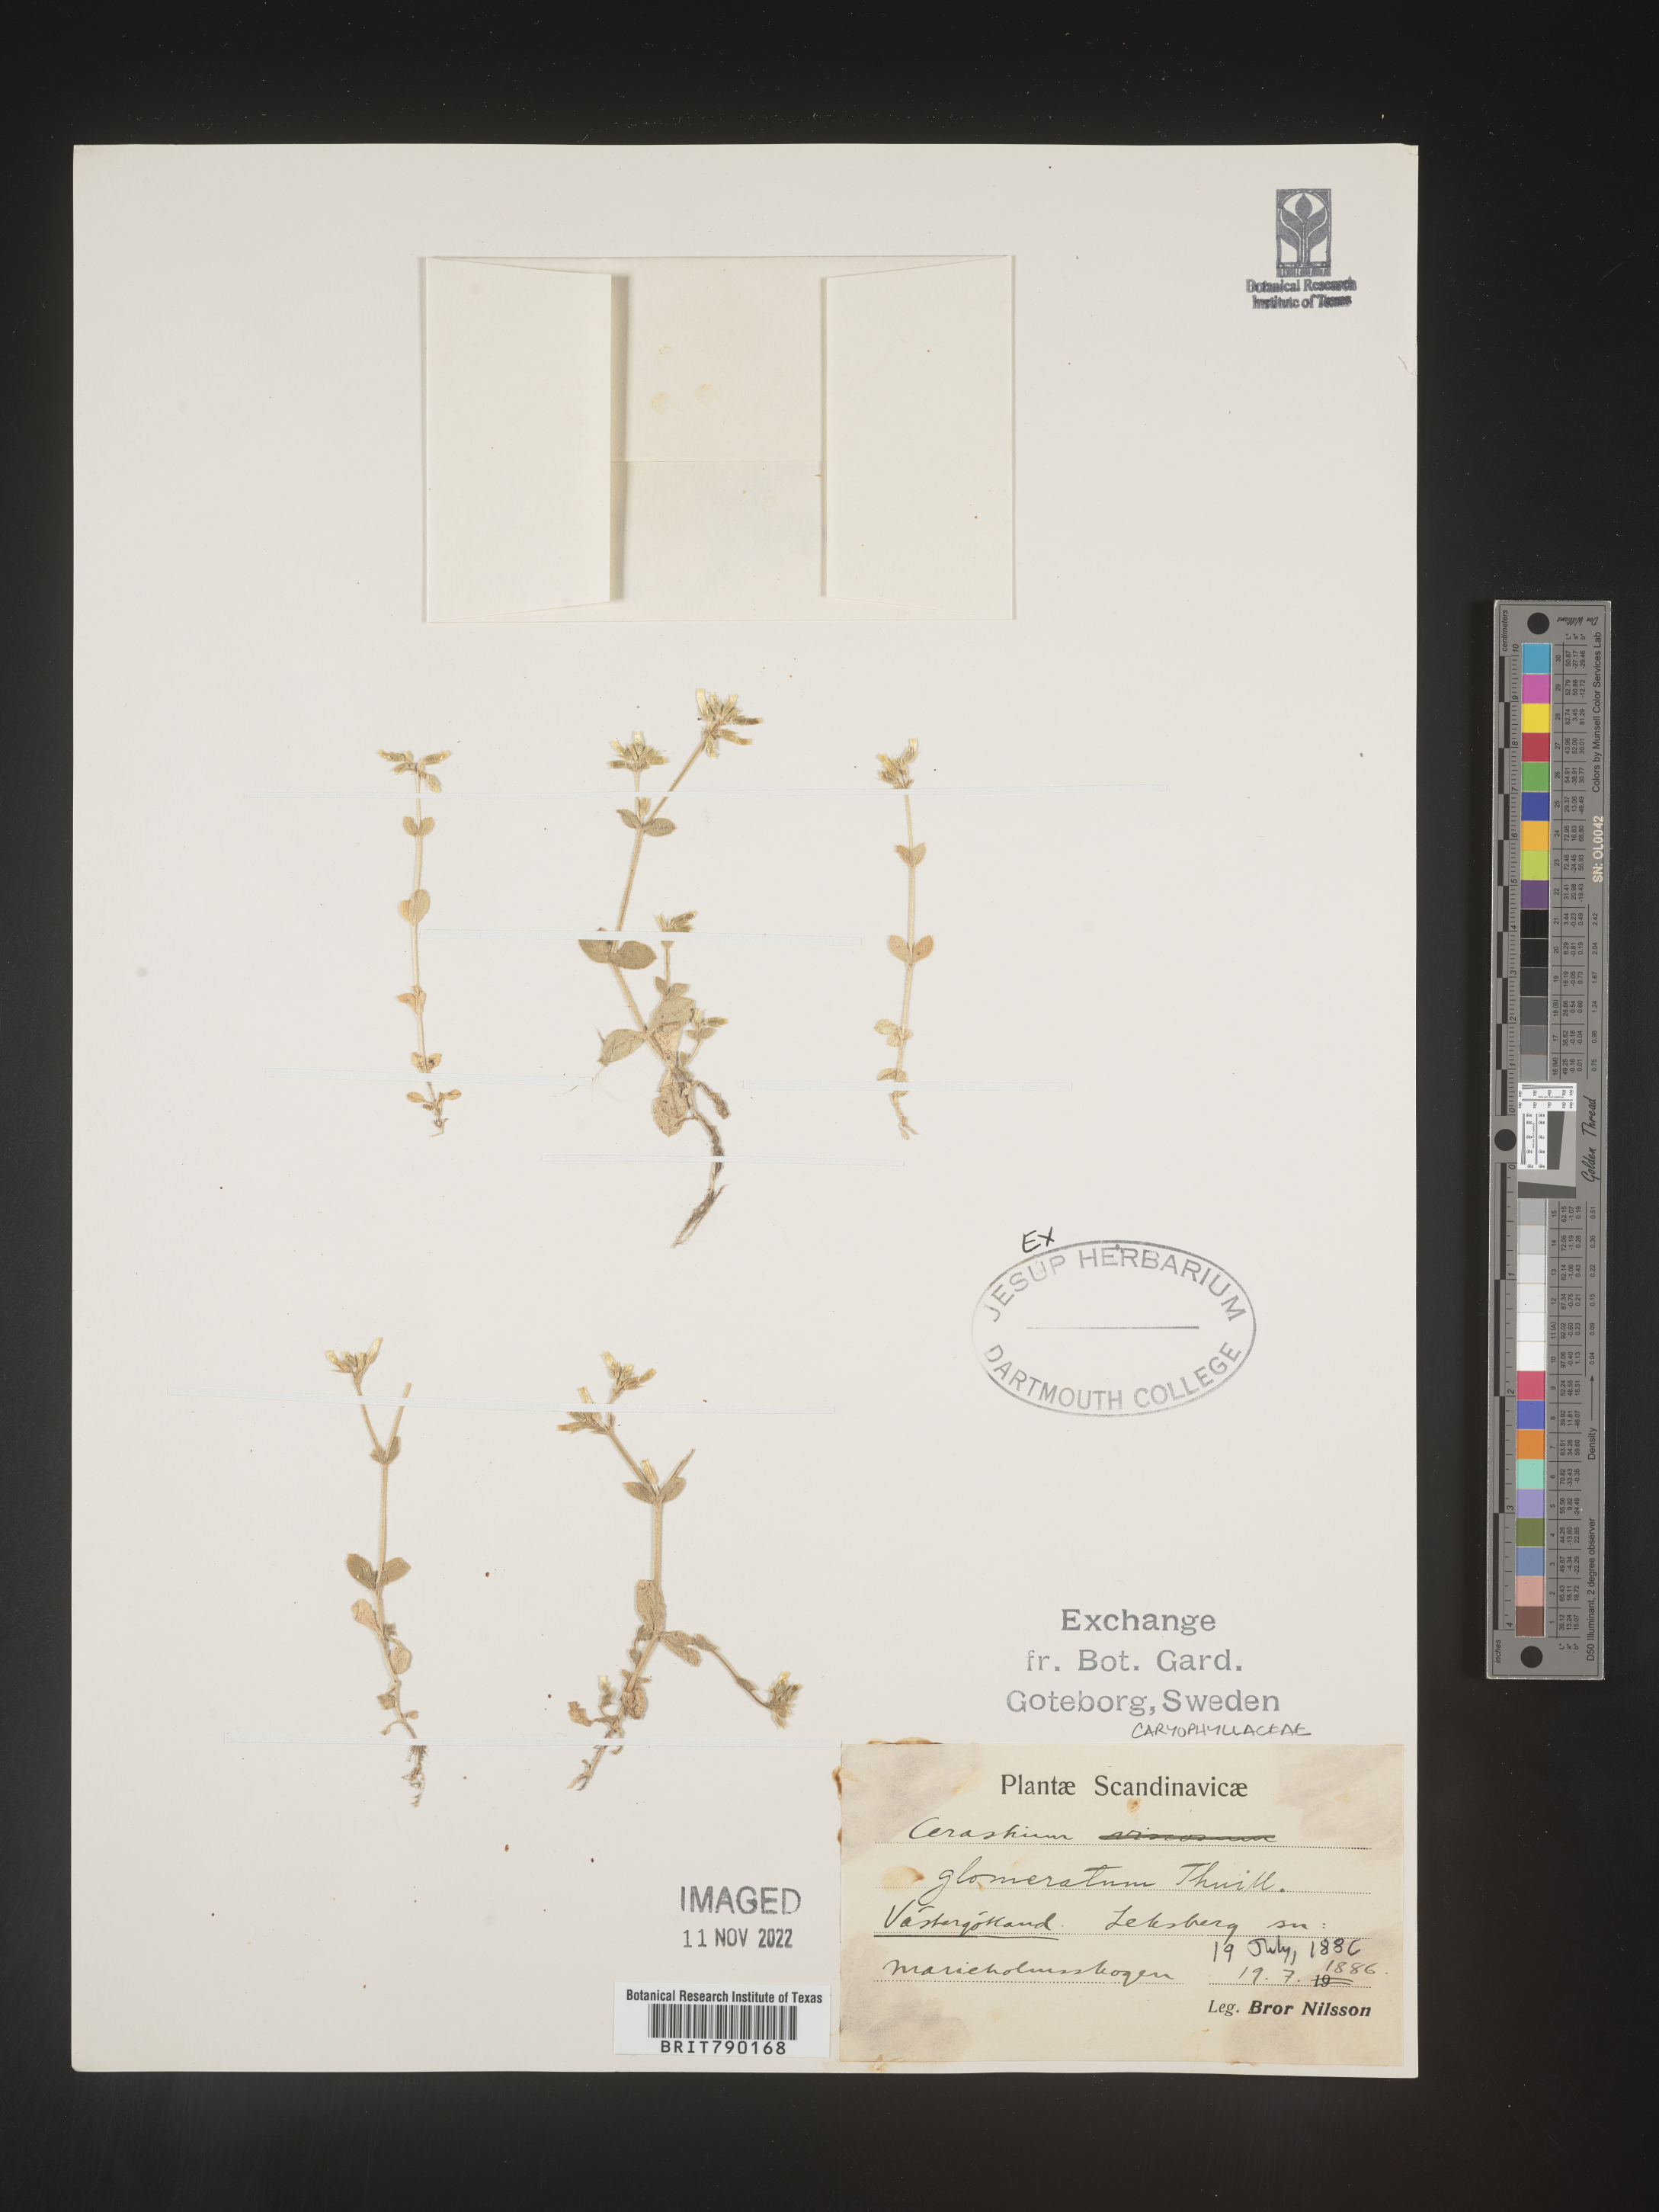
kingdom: Plantae
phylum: Tracheophyta
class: Magnoliopsida
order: Caryophyllales
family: Caryophyllaceae
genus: Cerastium
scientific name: Cerastium
